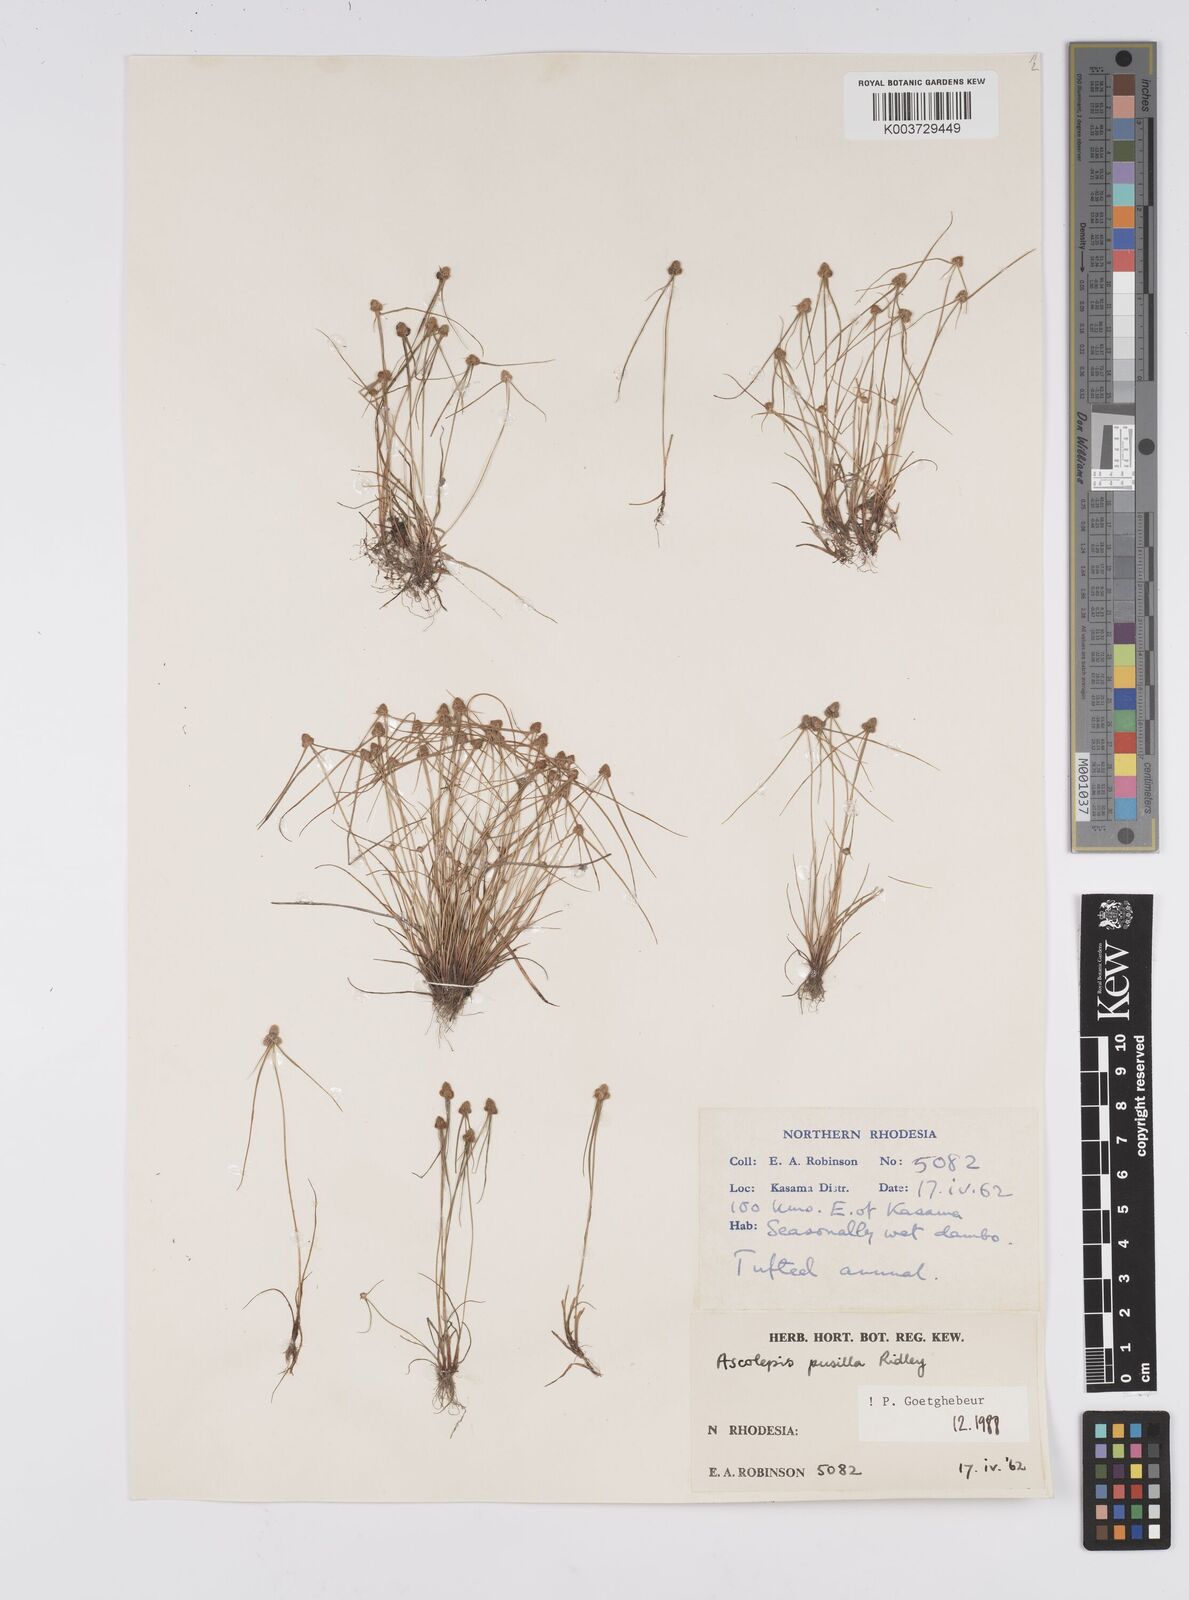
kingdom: Plantae
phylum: Tracheophyta
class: Liliopsida
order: Poales
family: Cyperaceae
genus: Cyperus
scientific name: Cyperus
